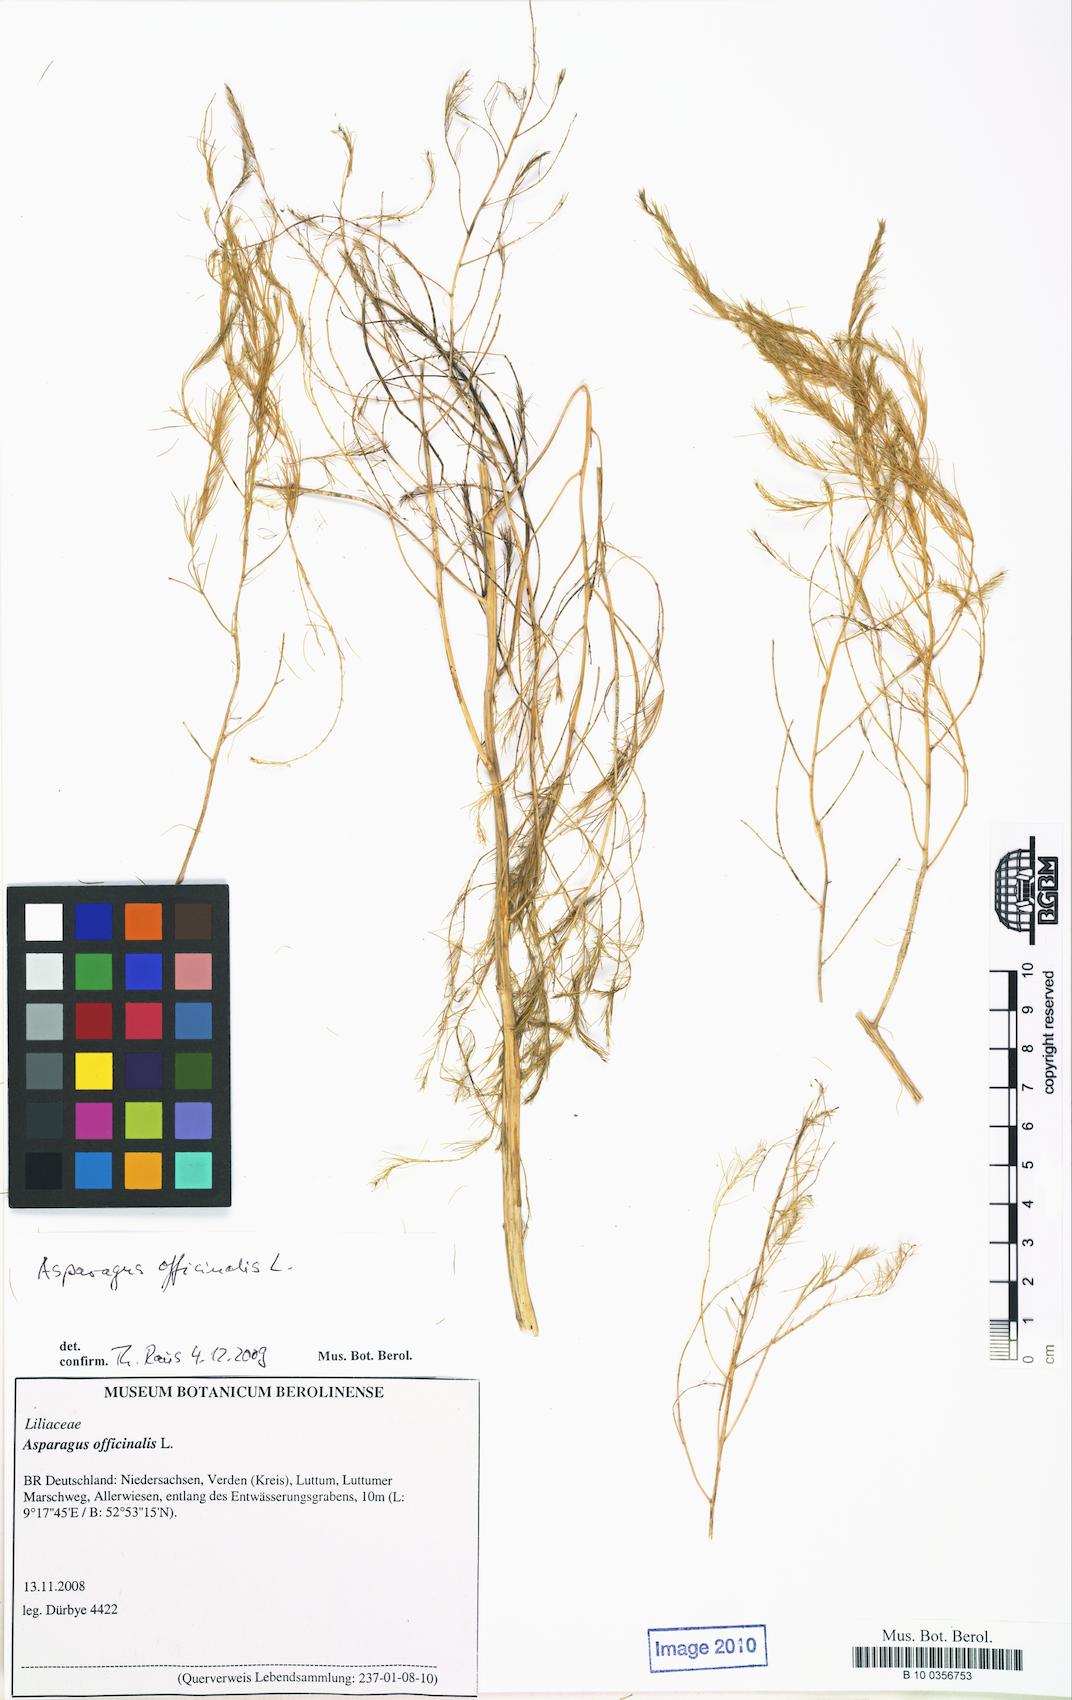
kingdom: Plantae
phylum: Tracheophyta
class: Liliopsida
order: Asparagales
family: Asparagaceae
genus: Asparagus
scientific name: Asparagus officinalis
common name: Garden asparagus
